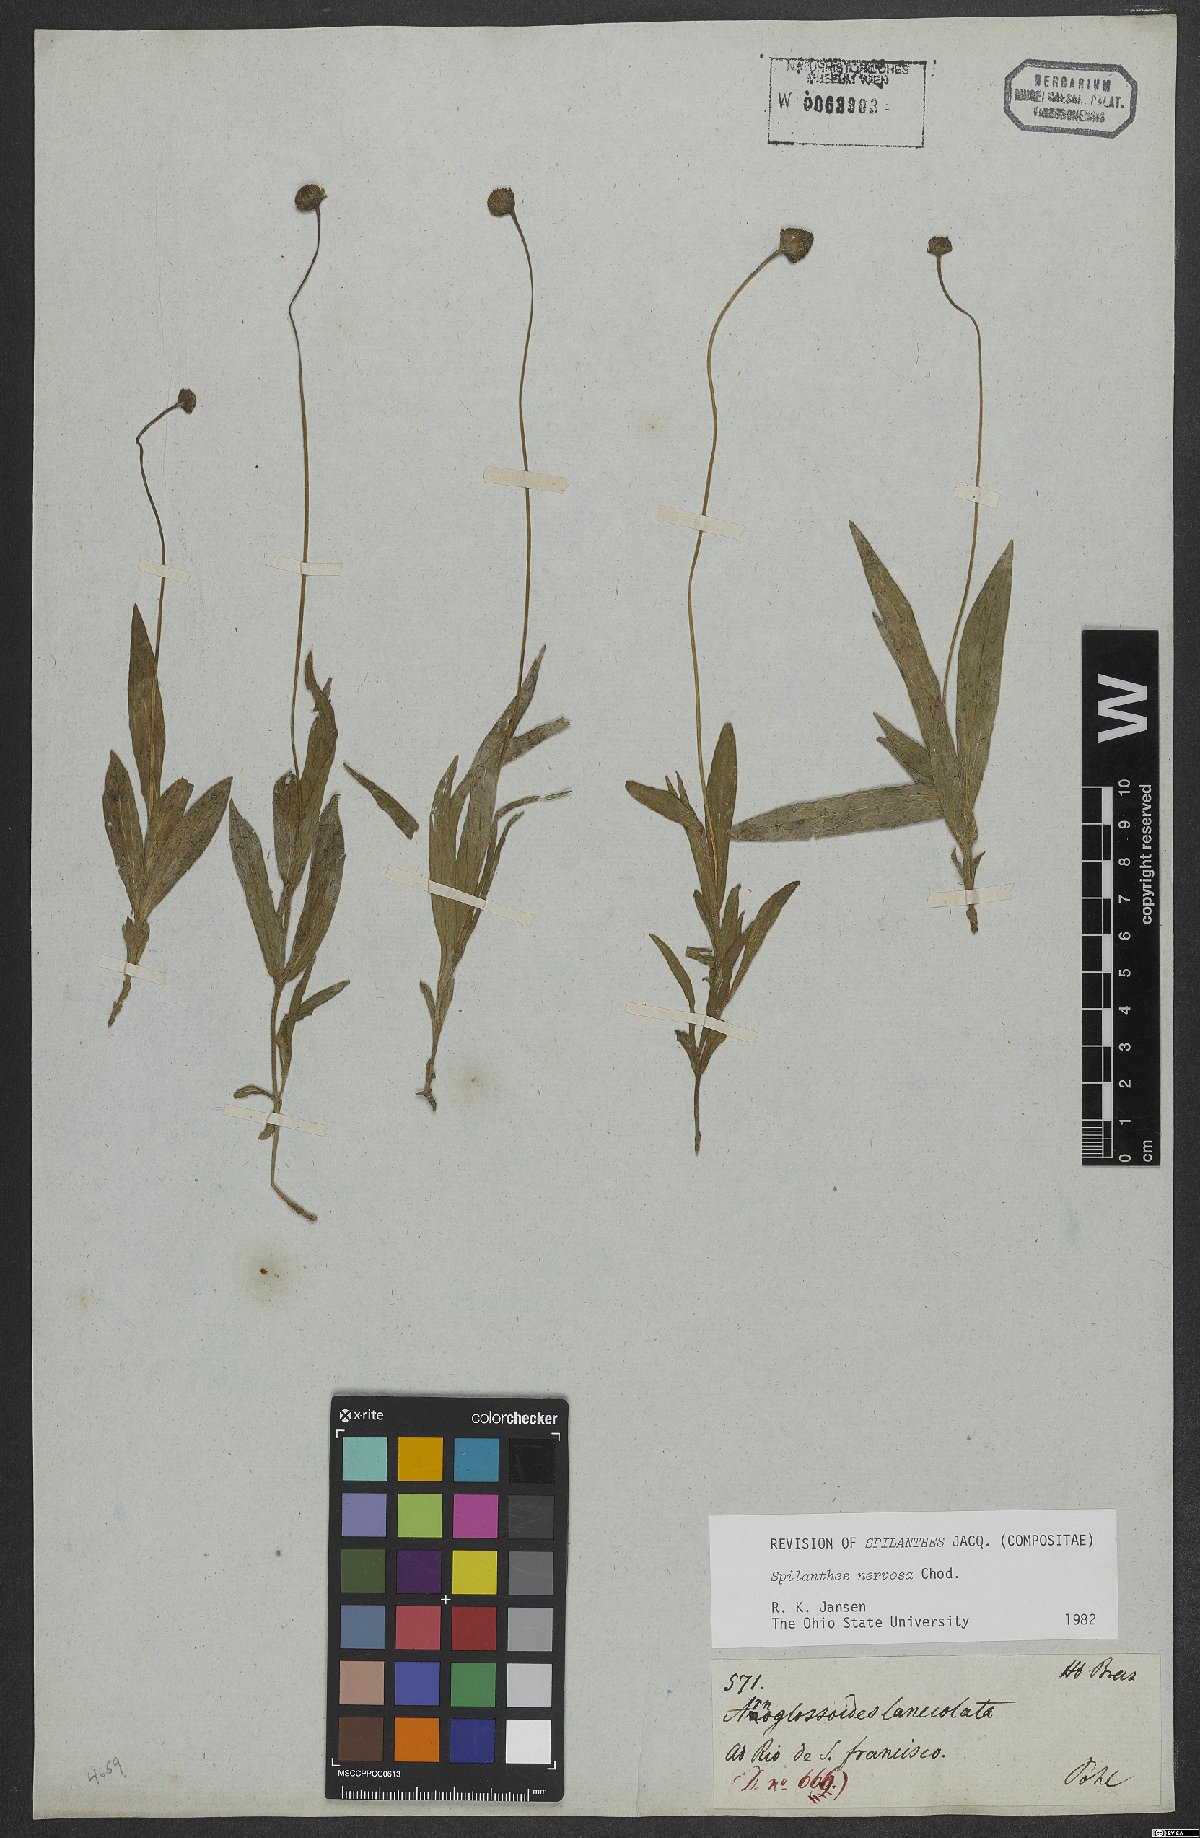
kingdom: Plantae
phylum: Tracheophyta
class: Magnoliopsida
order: Asterales
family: Asteraceae
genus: Spilanthes
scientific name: Spilanthes nervosa
